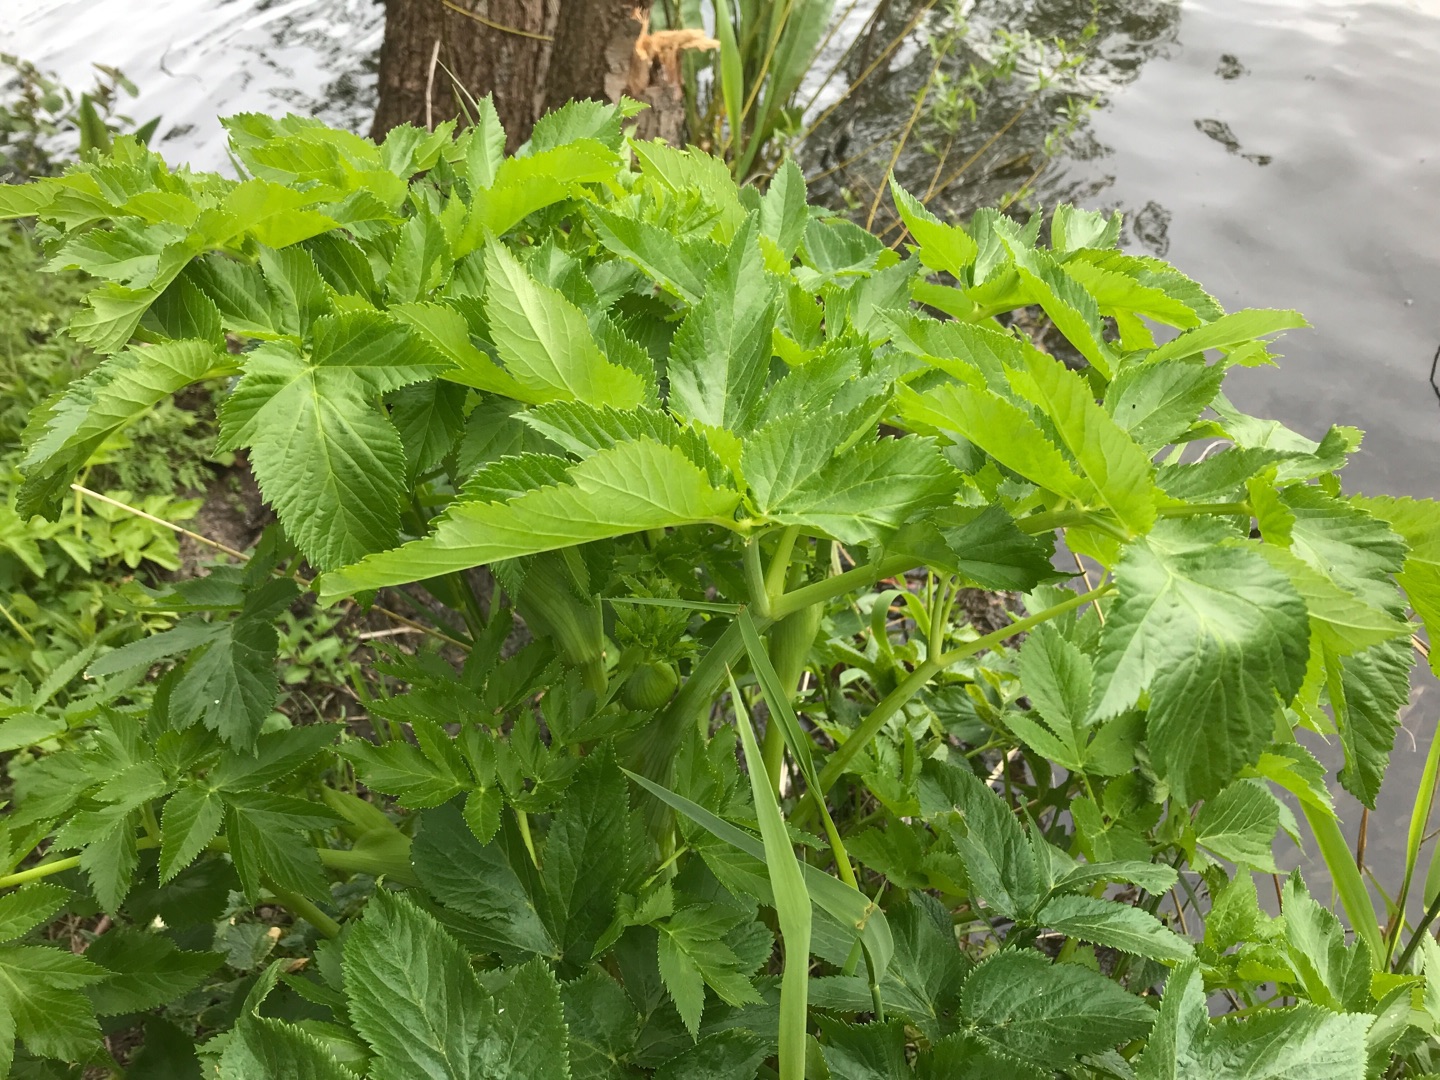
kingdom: Plantae
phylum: Tracheophyta
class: Magnoliopsida
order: Apiales
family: Apiaceae
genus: Angelica
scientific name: Angelica archangelica
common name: Kvan
